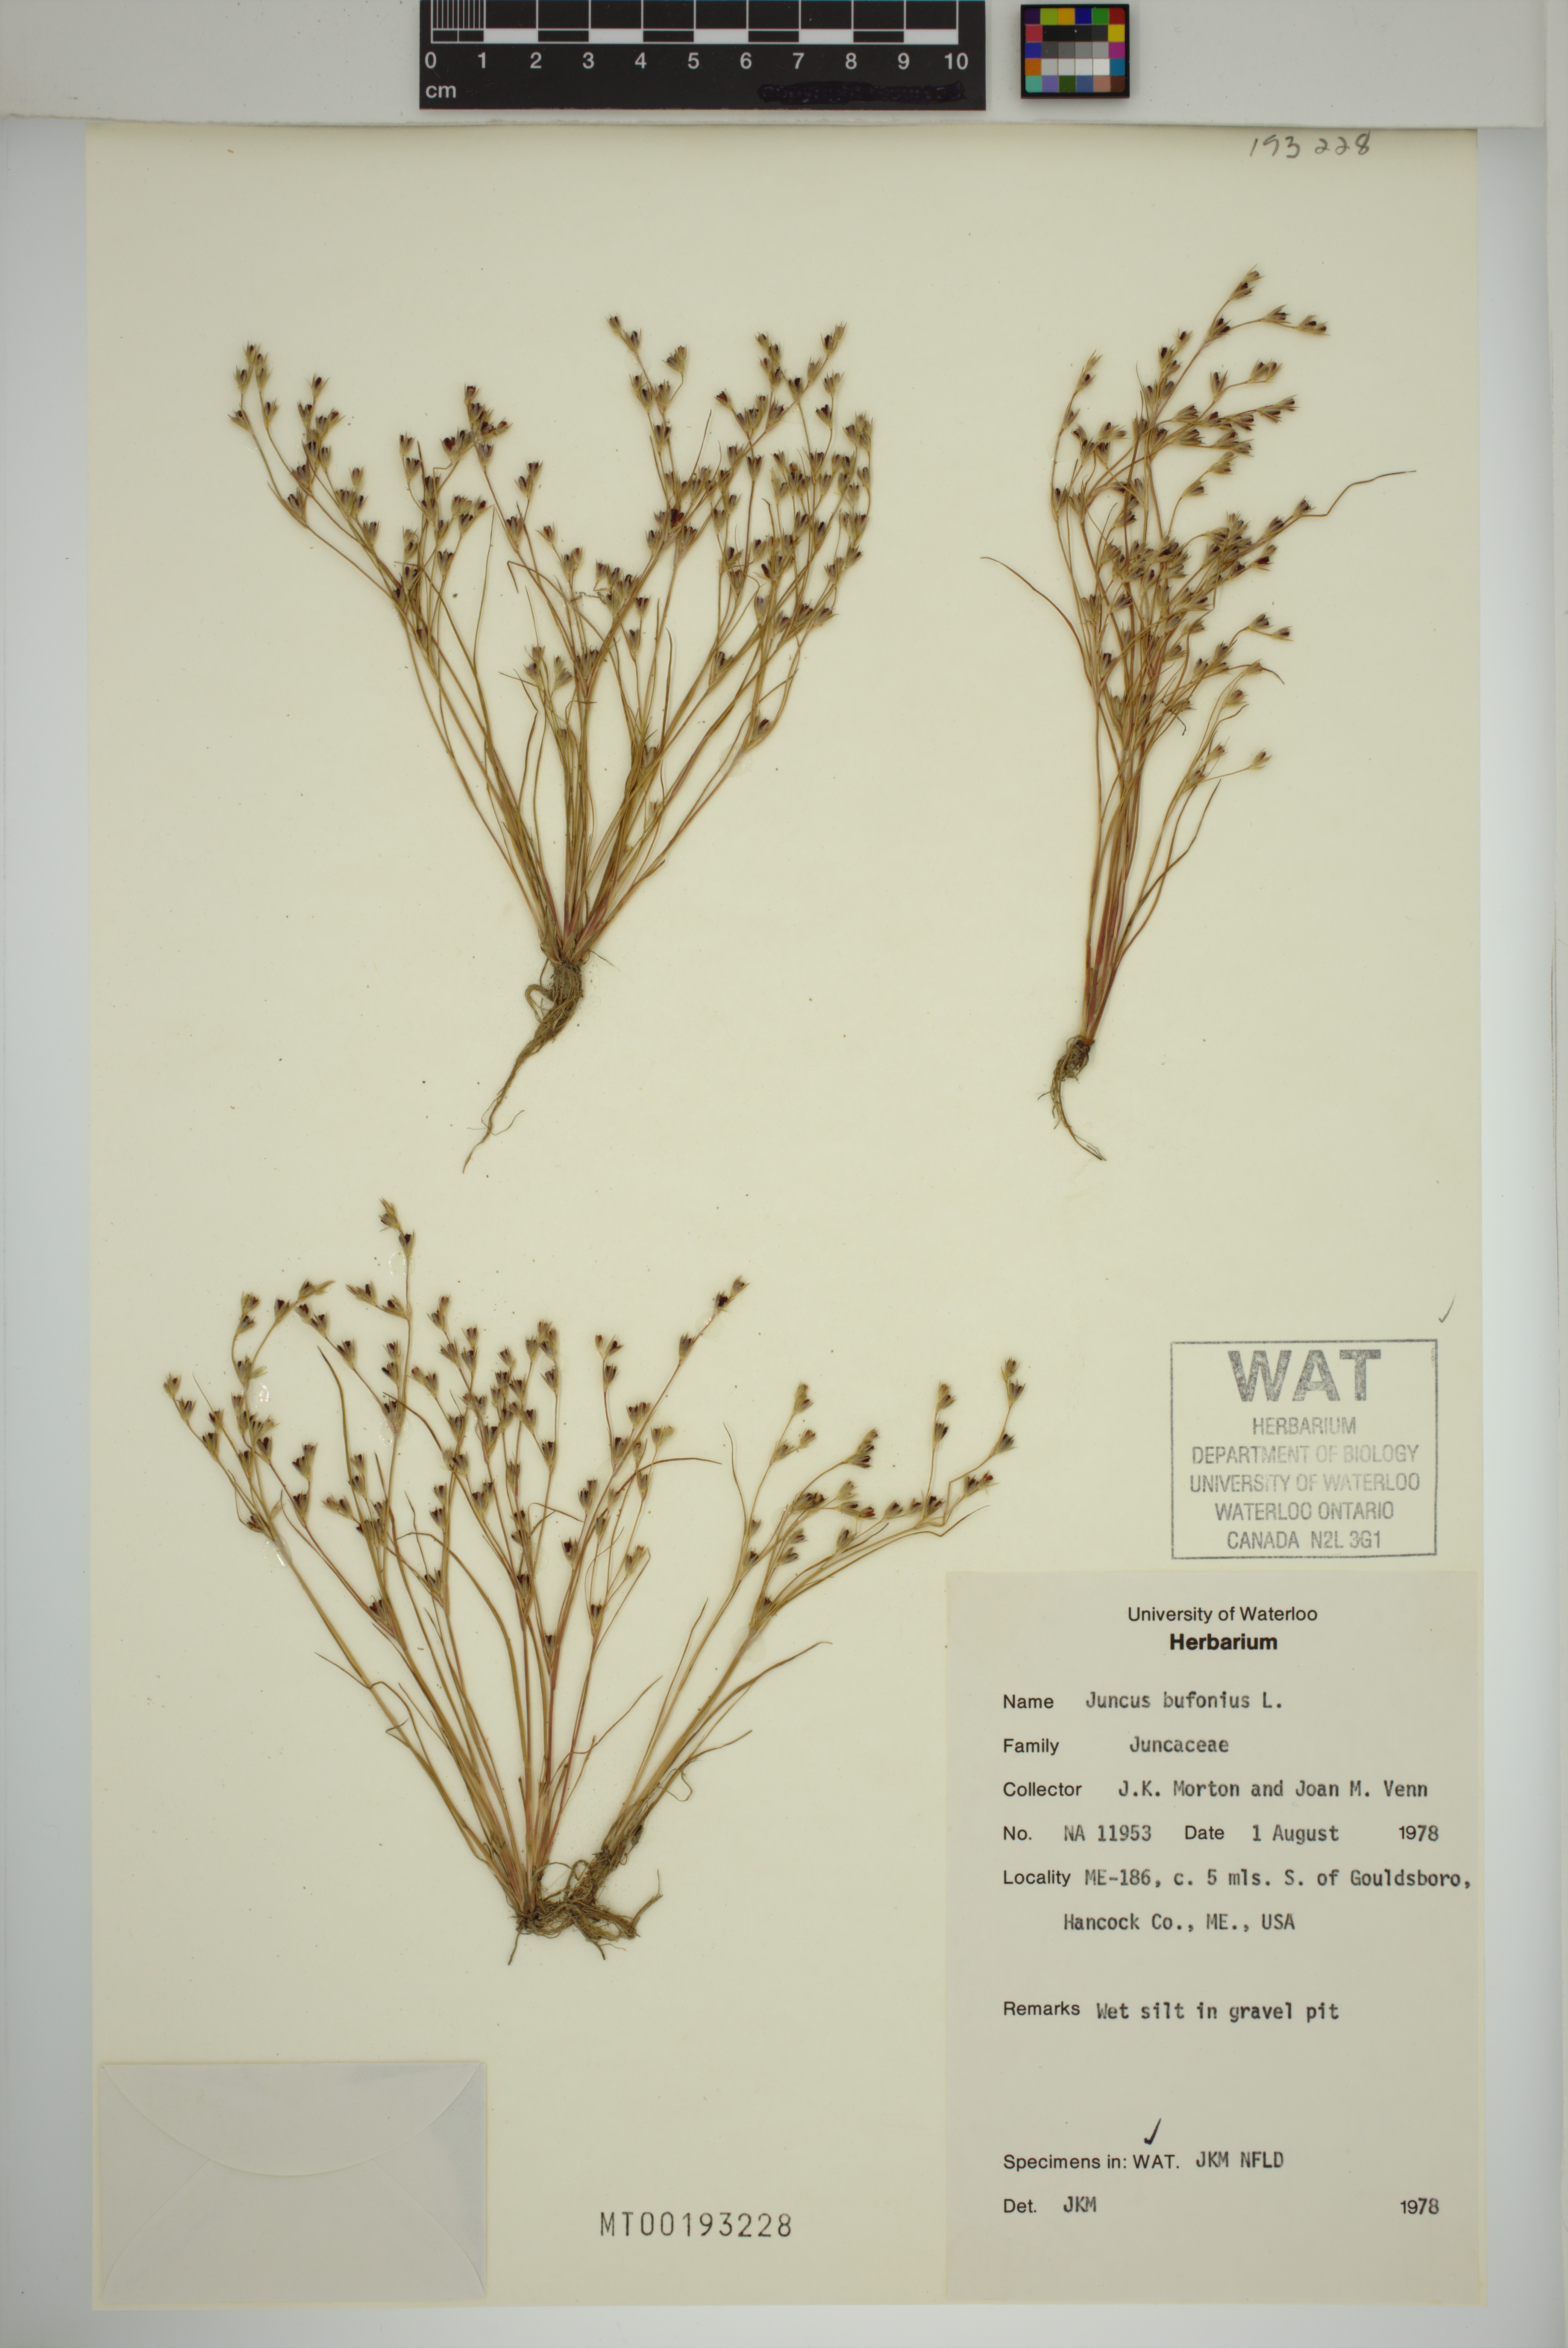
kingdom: Plantae
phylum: Tracheophyta
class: Liliopsida
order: Poales
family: Juncaceae
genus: Juncus
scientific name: Juncus bufonius
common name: Toad rush
